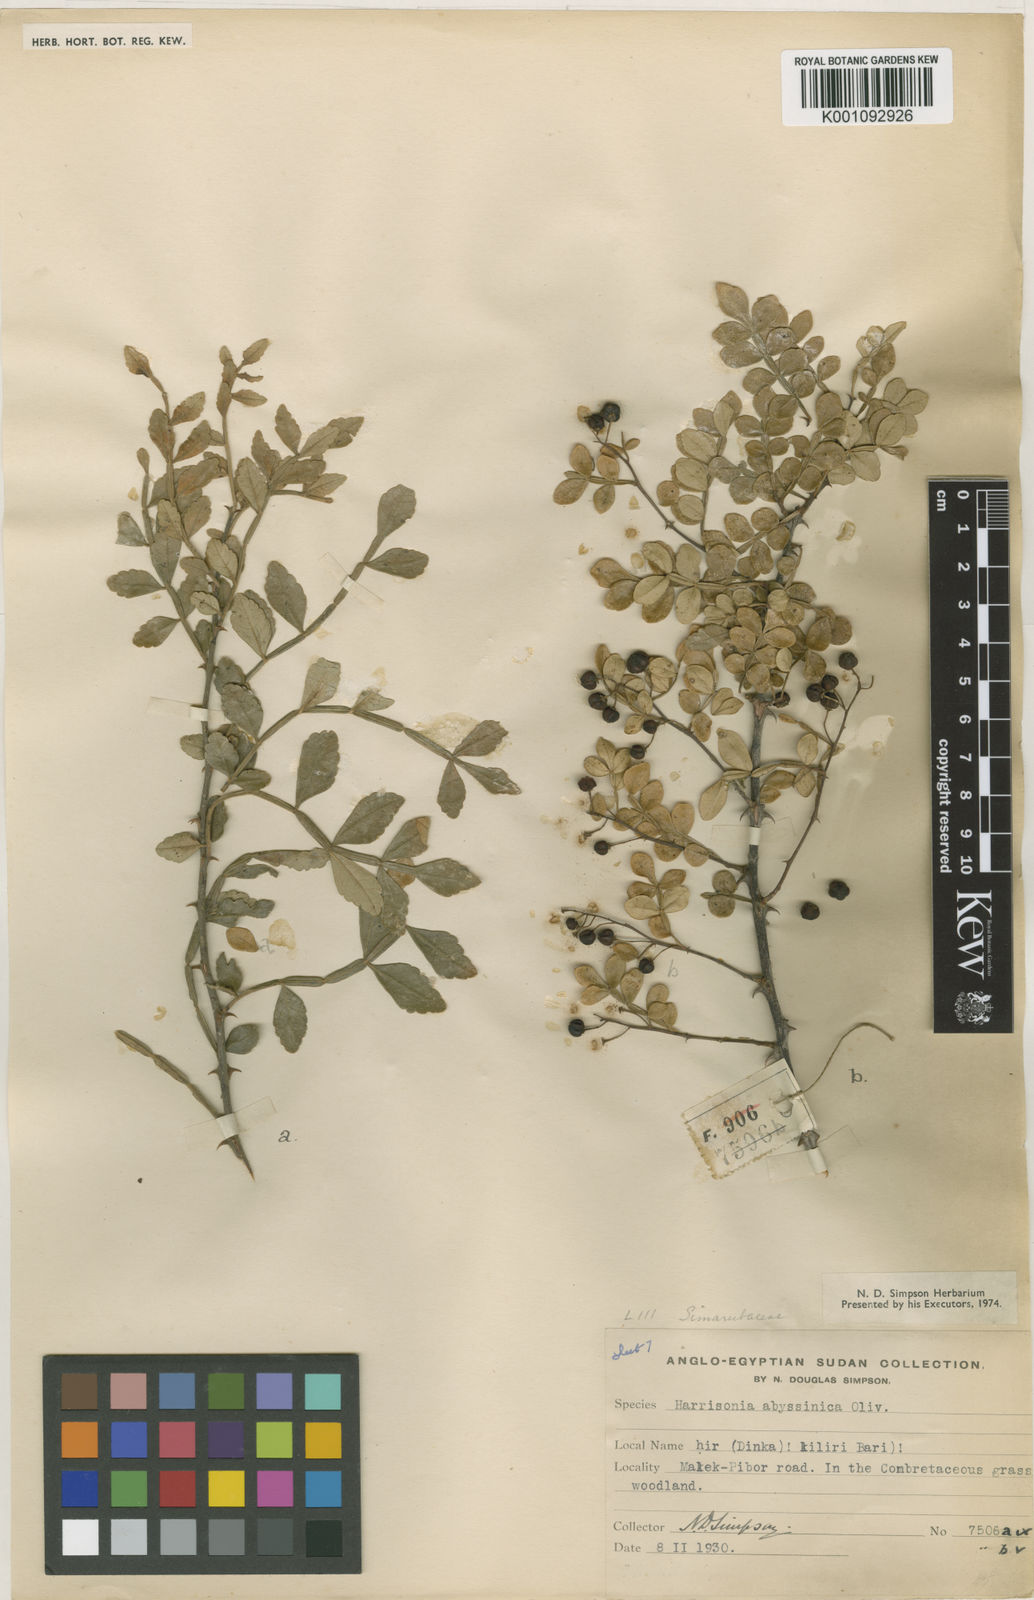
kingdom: Plantae
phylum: Tracheophyta
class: Magnoliopsida
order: Sapindales
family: Rutaceae
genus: Harrisonia
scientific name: Harrisonia abyssinica
